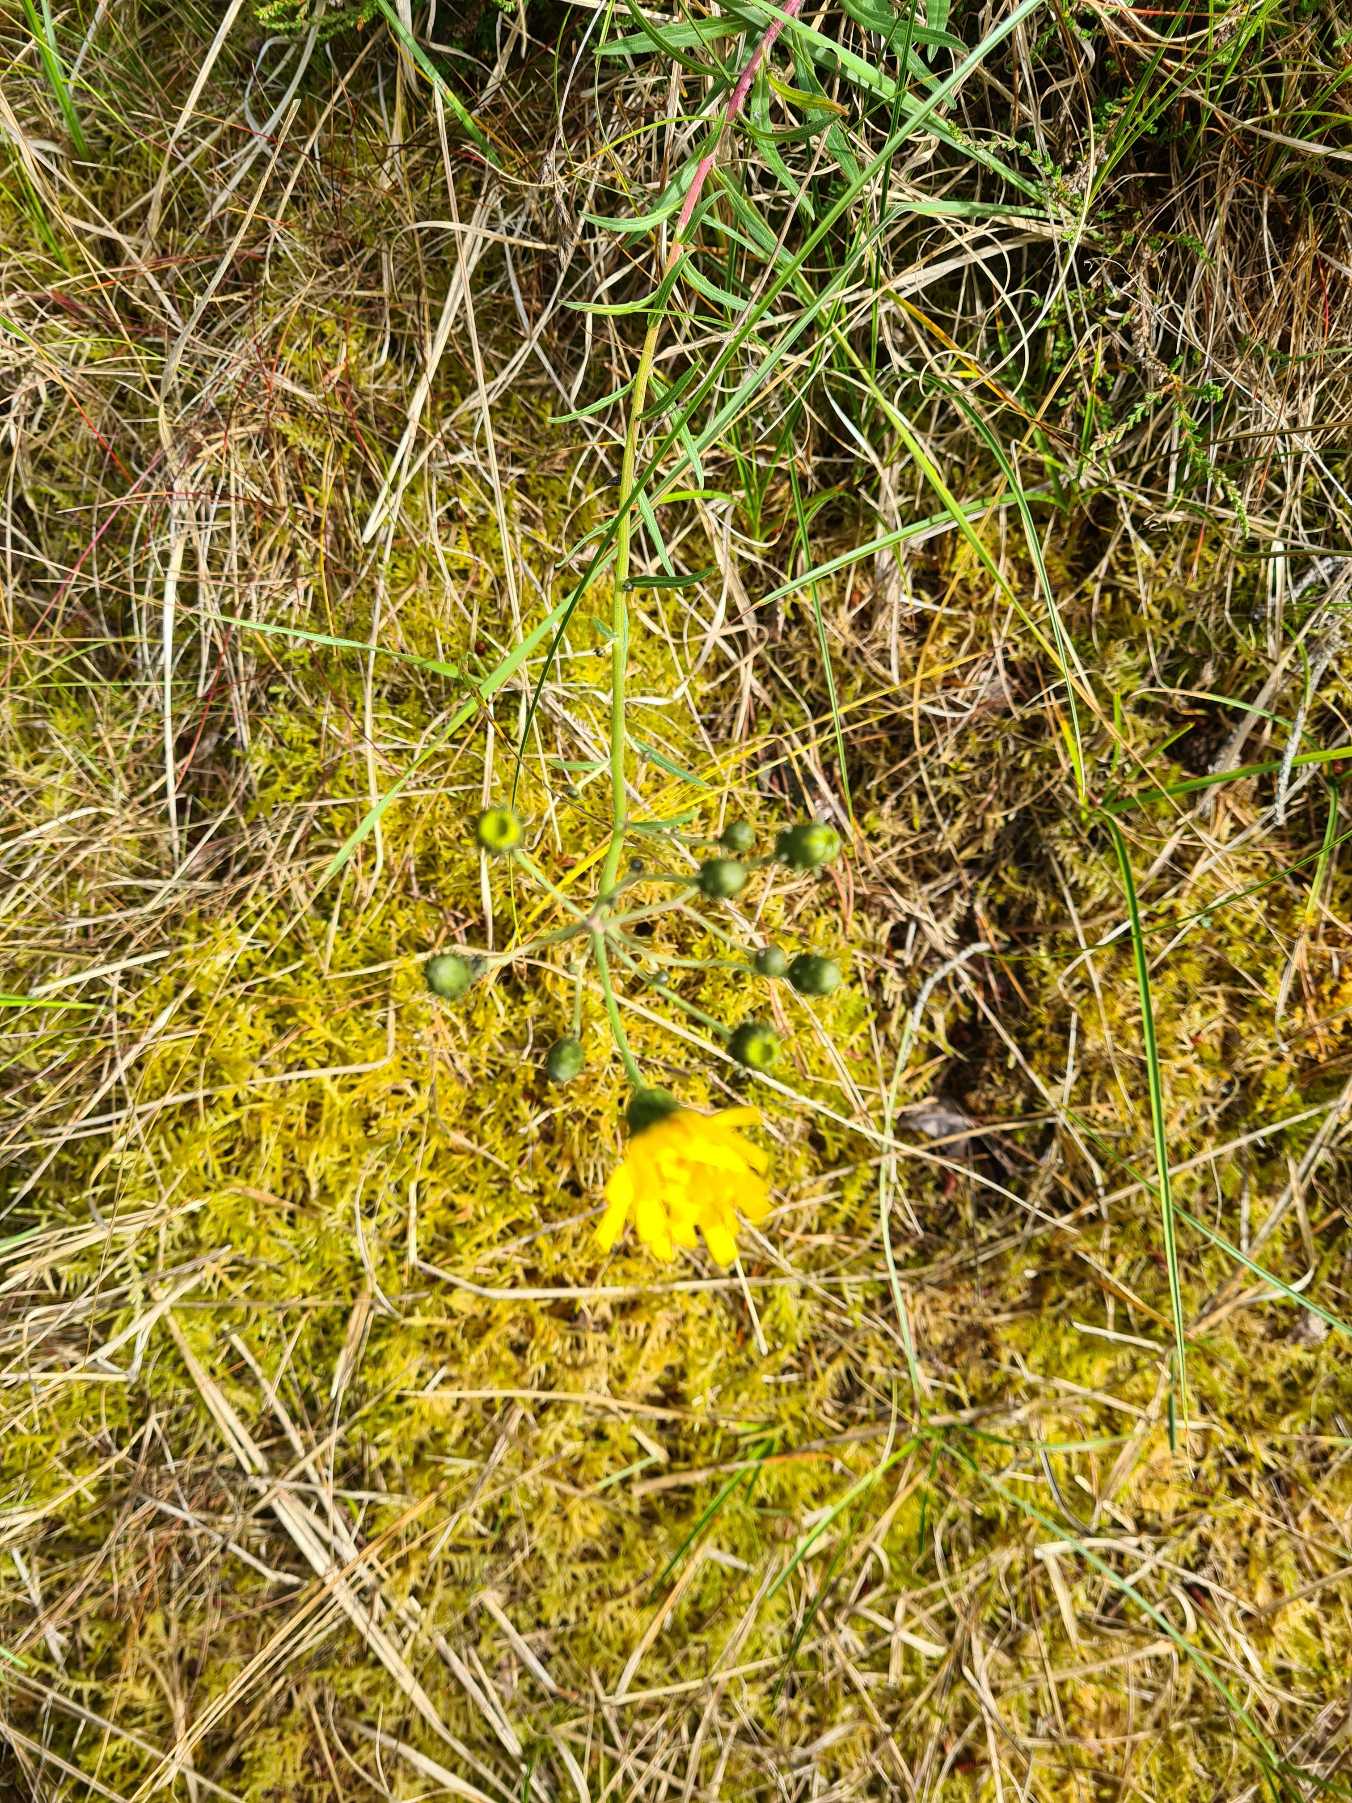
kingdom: Plantae
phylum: Tracheophyta
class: Magnoliopsida
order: Asterales
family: Asteraceae
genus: Hieracium
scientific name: Hieracium umbellatum
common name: Smalbladet høgeurt
